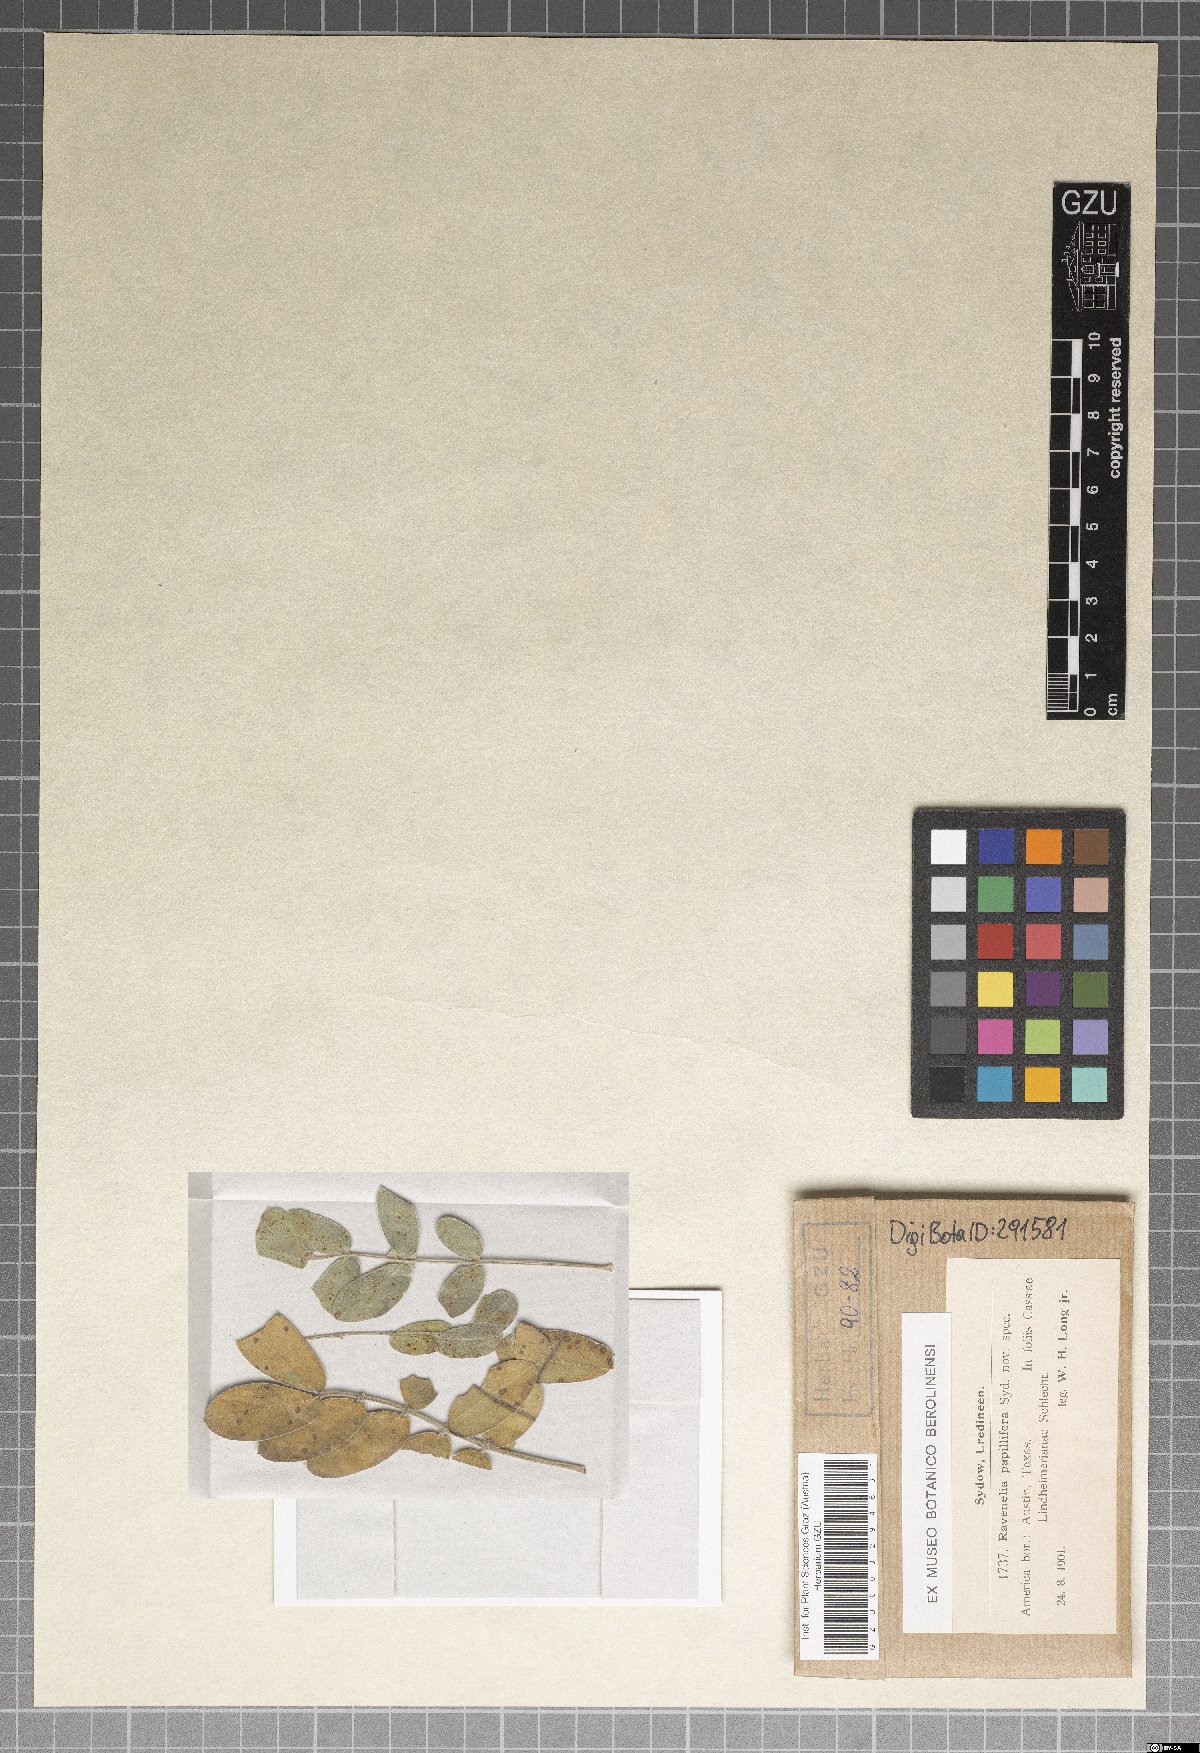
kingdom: Fungi
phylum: Basidiomycota
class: Pucciniomycetes
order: Pucciniales
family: Raveneliaceae
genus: Ravenelia
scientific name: Ravenelia spinulosa
